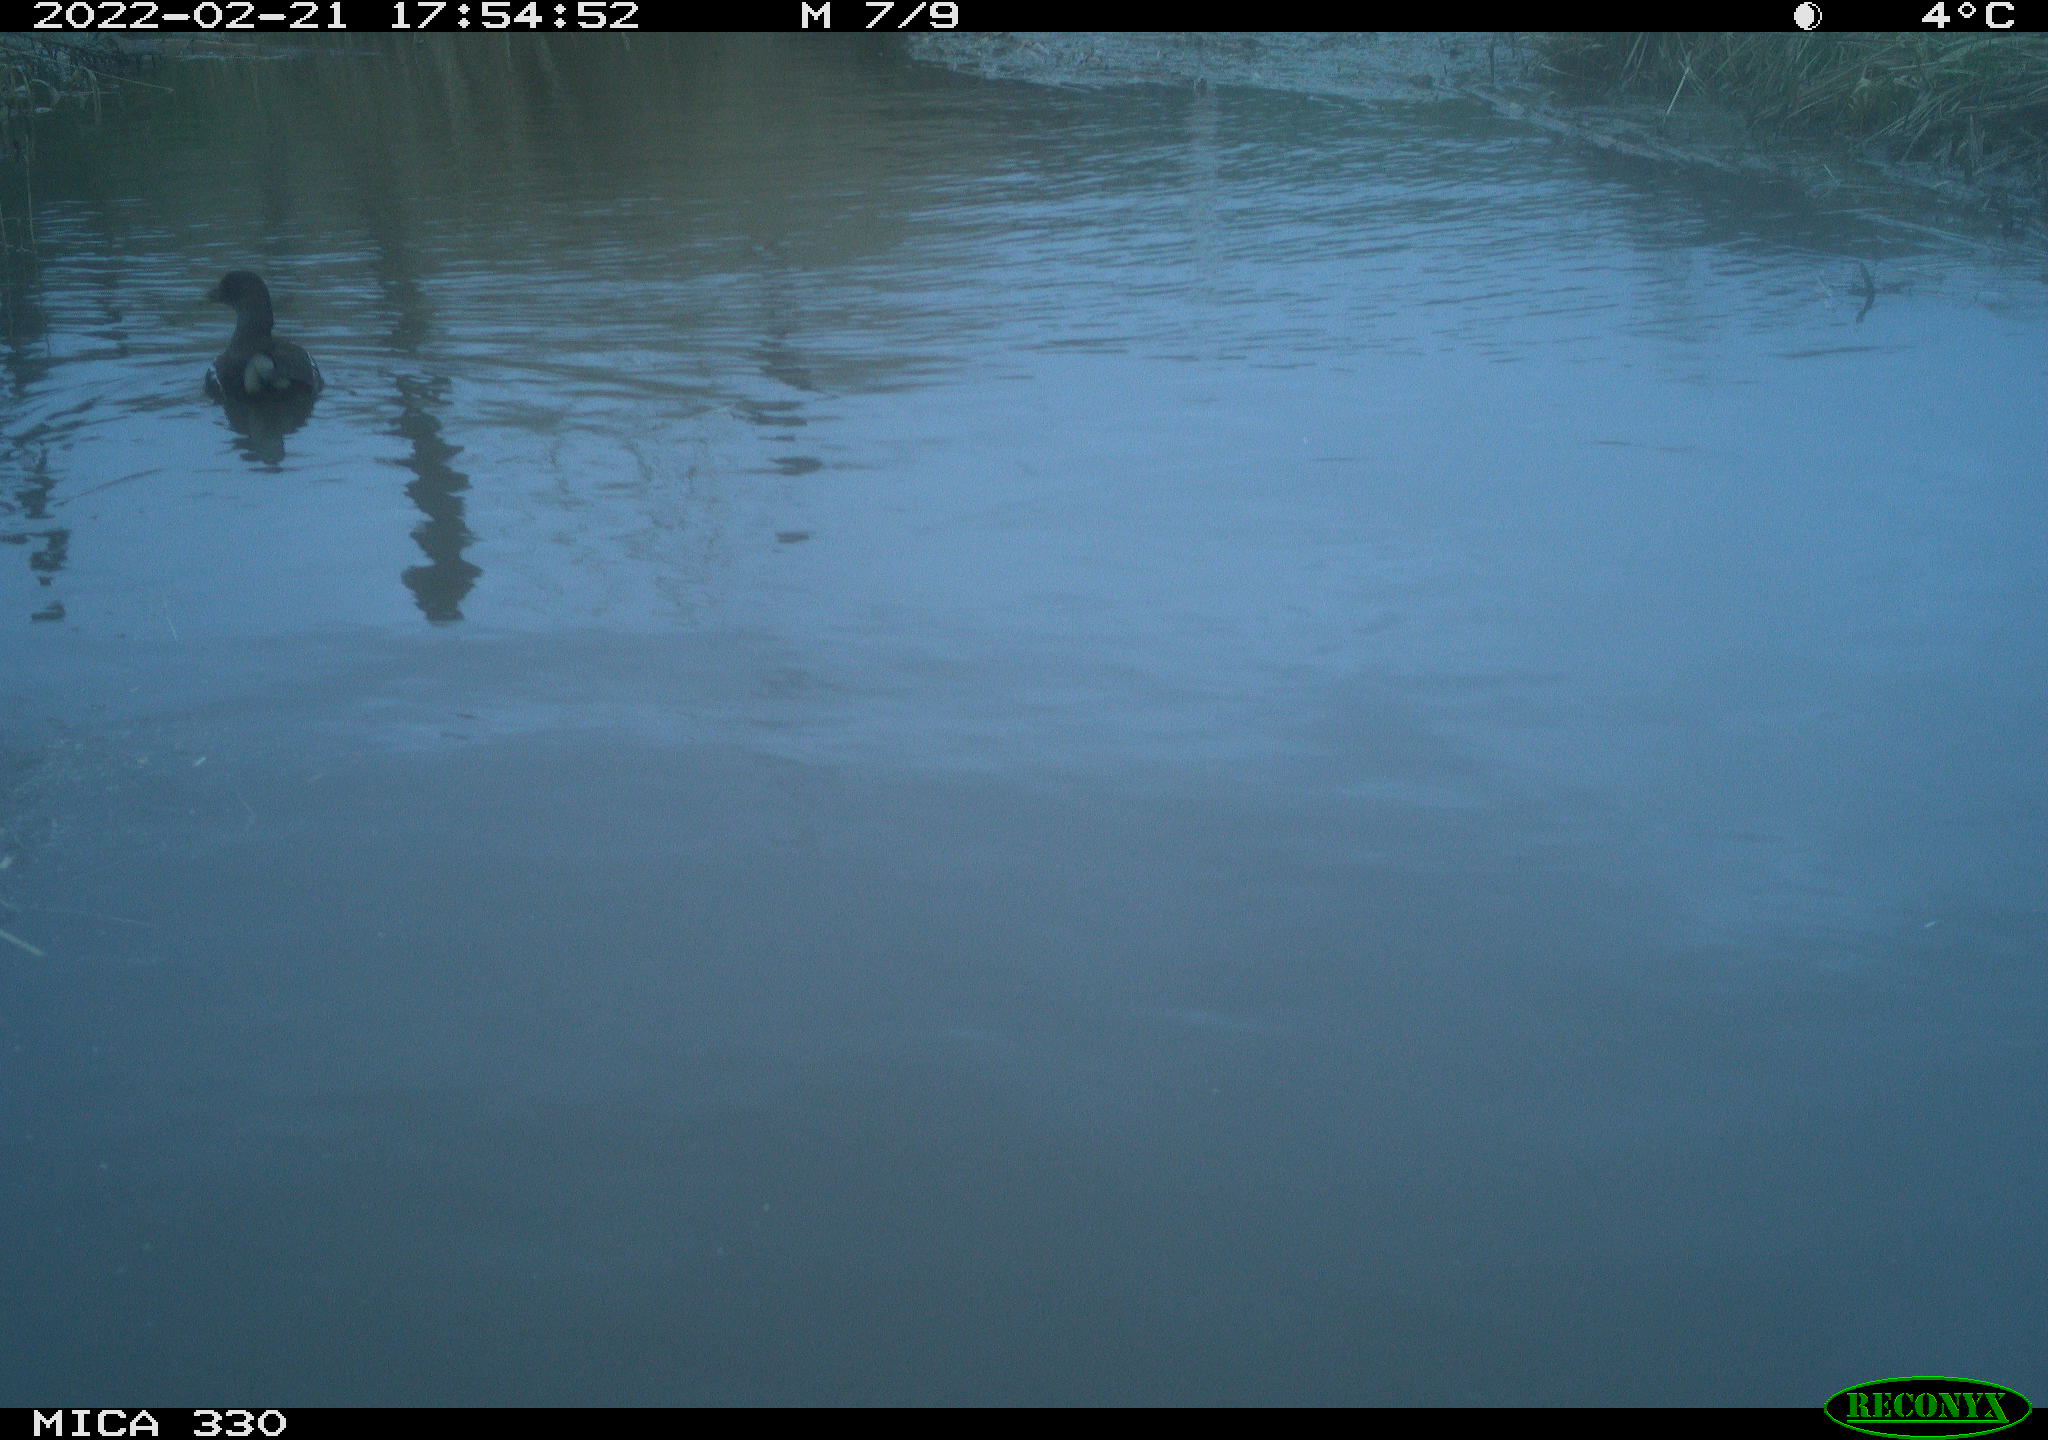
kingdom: Animalia
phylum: Chordata
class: Aves
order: Gruiformes
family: Rallidae
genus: Gallinula
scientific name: Gallinula chloropus
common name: Common moorhen
